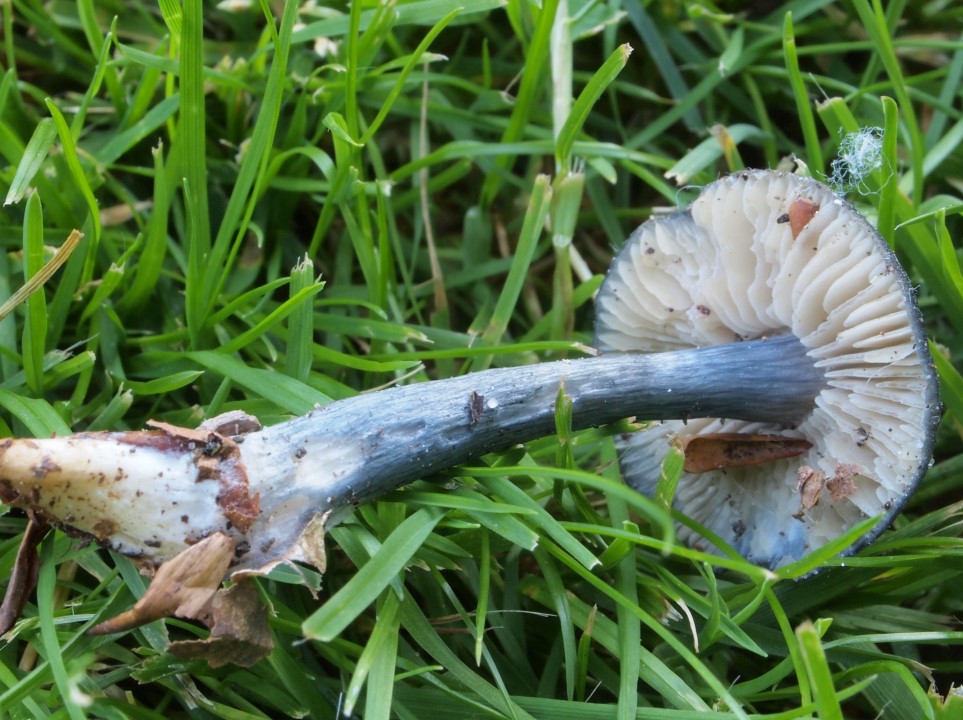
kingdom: Fungi
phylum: Basidiomycota
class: Agaricomycetes
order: Agaricales
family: Entolomataceae
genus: Entocybe
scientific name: Entocybe nitida
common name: stålblå rødblad
